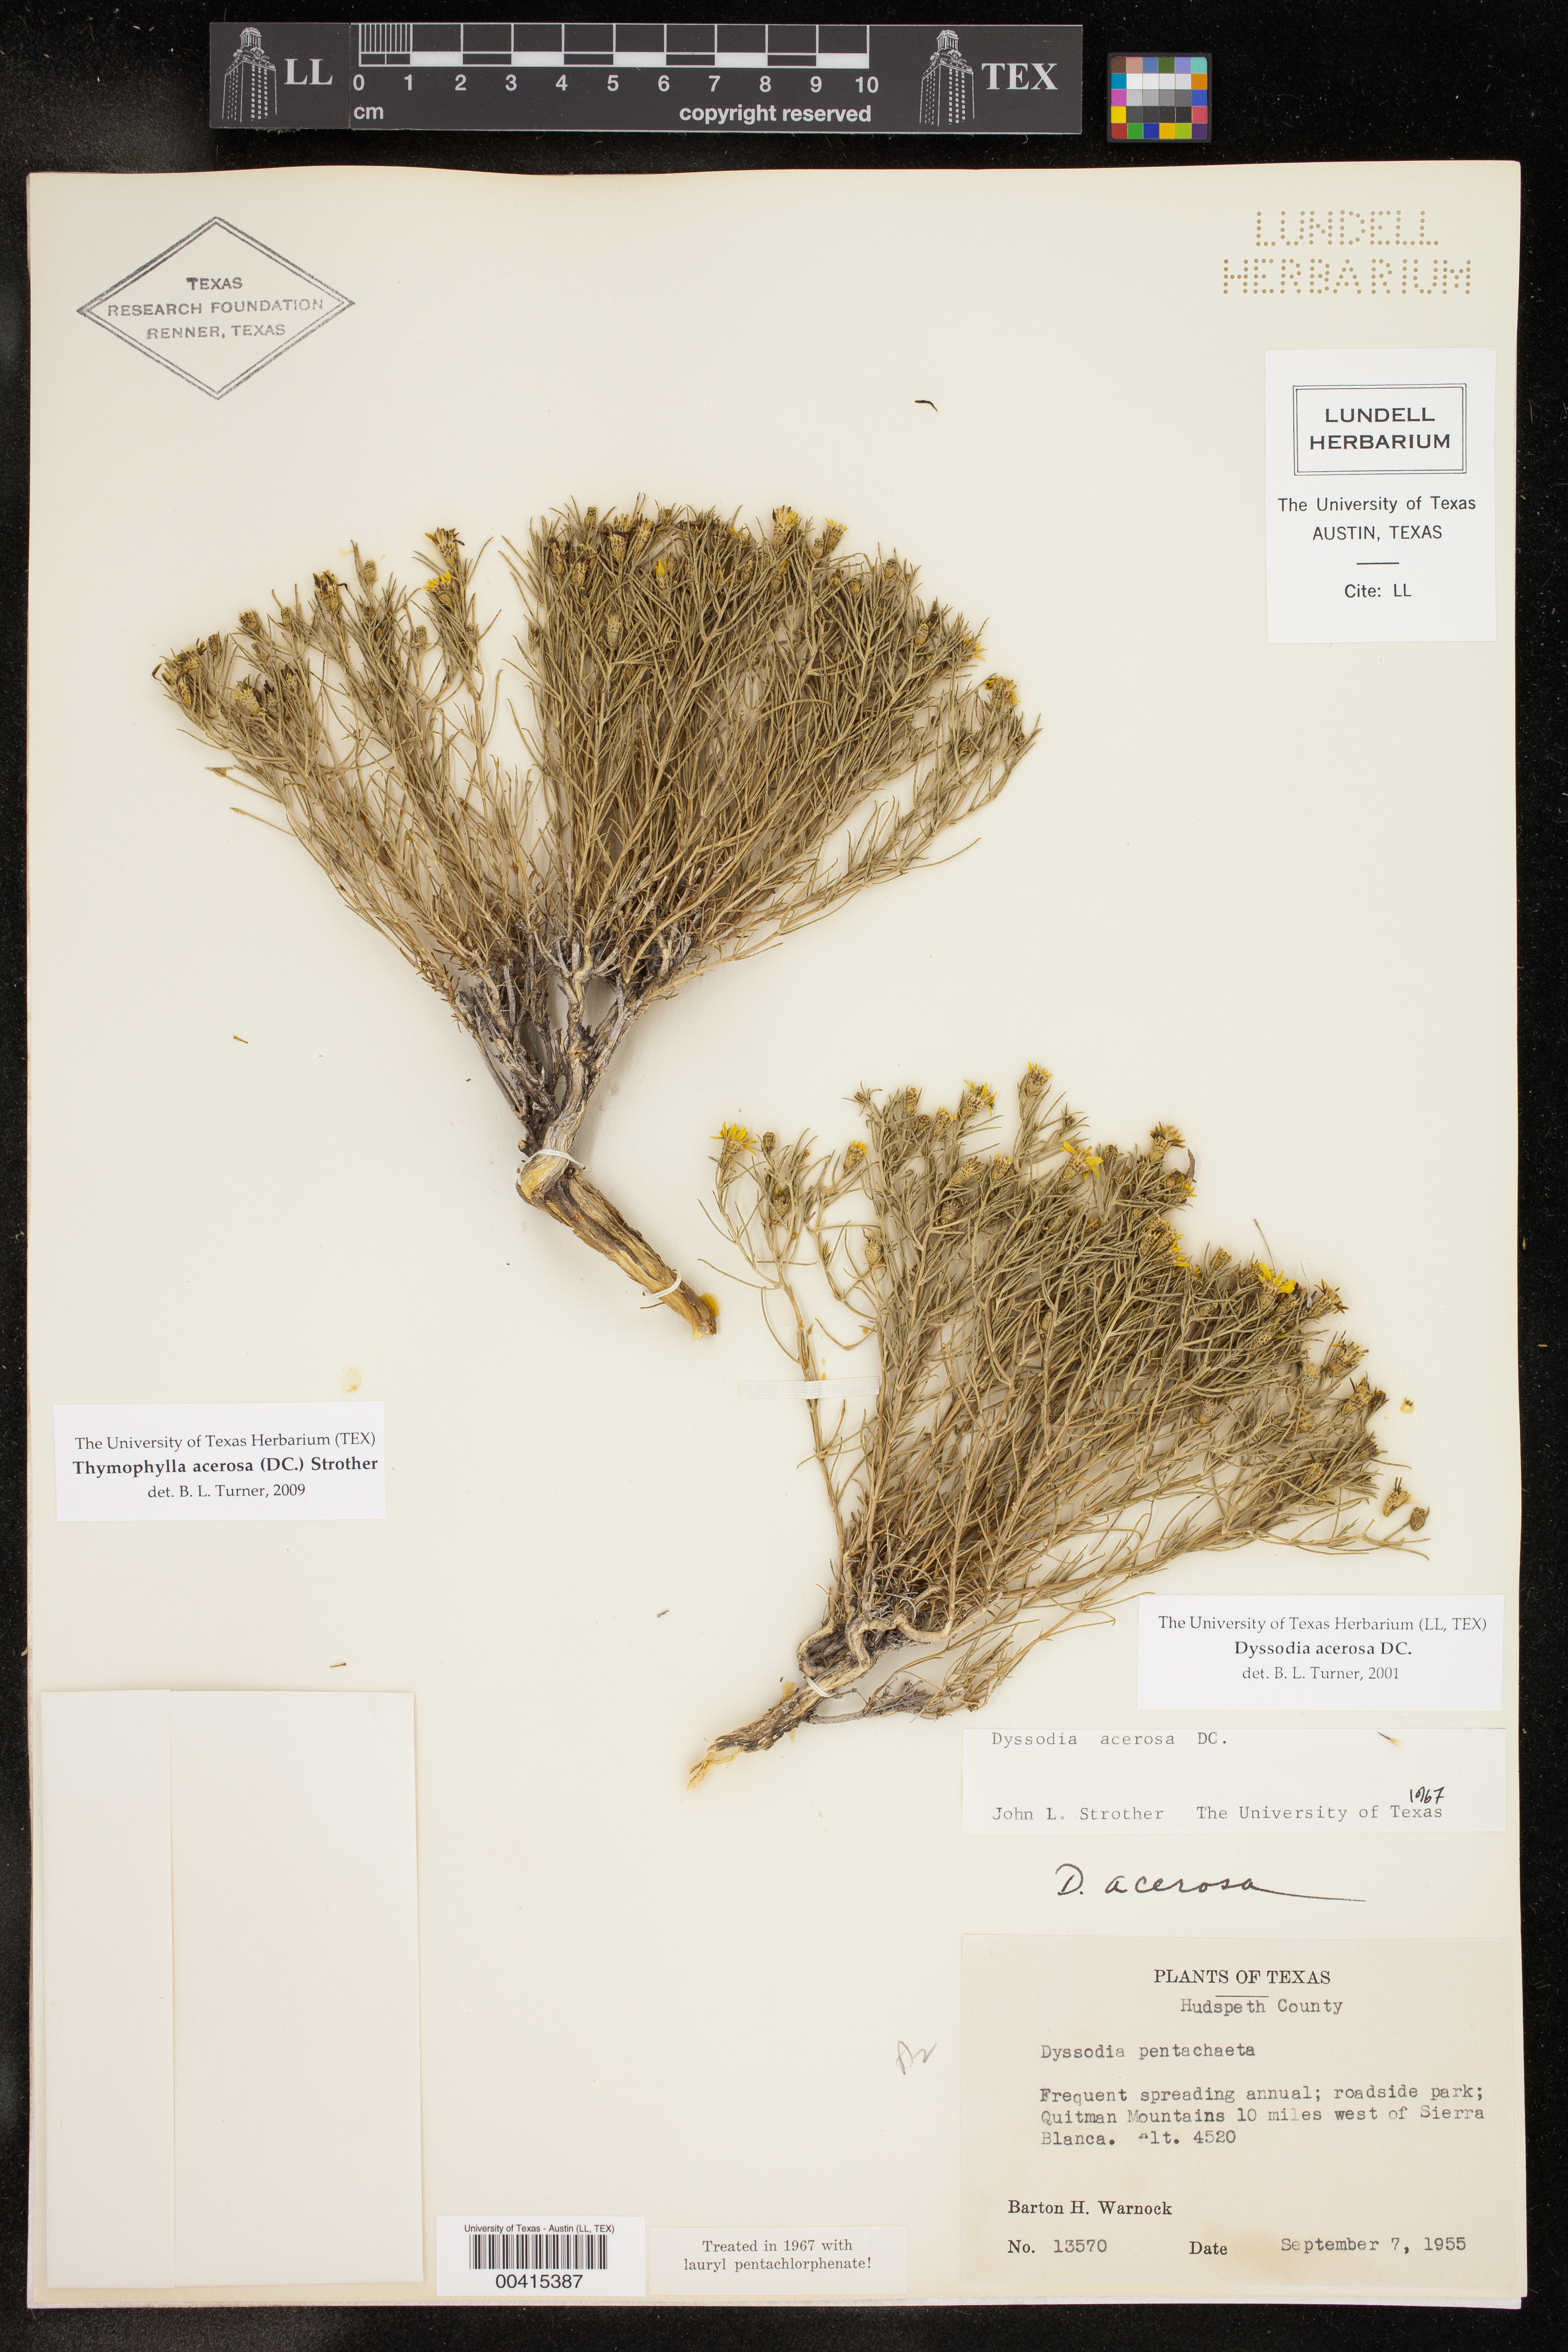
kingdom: Plantae
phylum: Tracheophyta
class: Magnoliopsida
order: Asterales
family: Asteraceae
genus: Thymophylla
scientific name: Thymophylla acerosa
